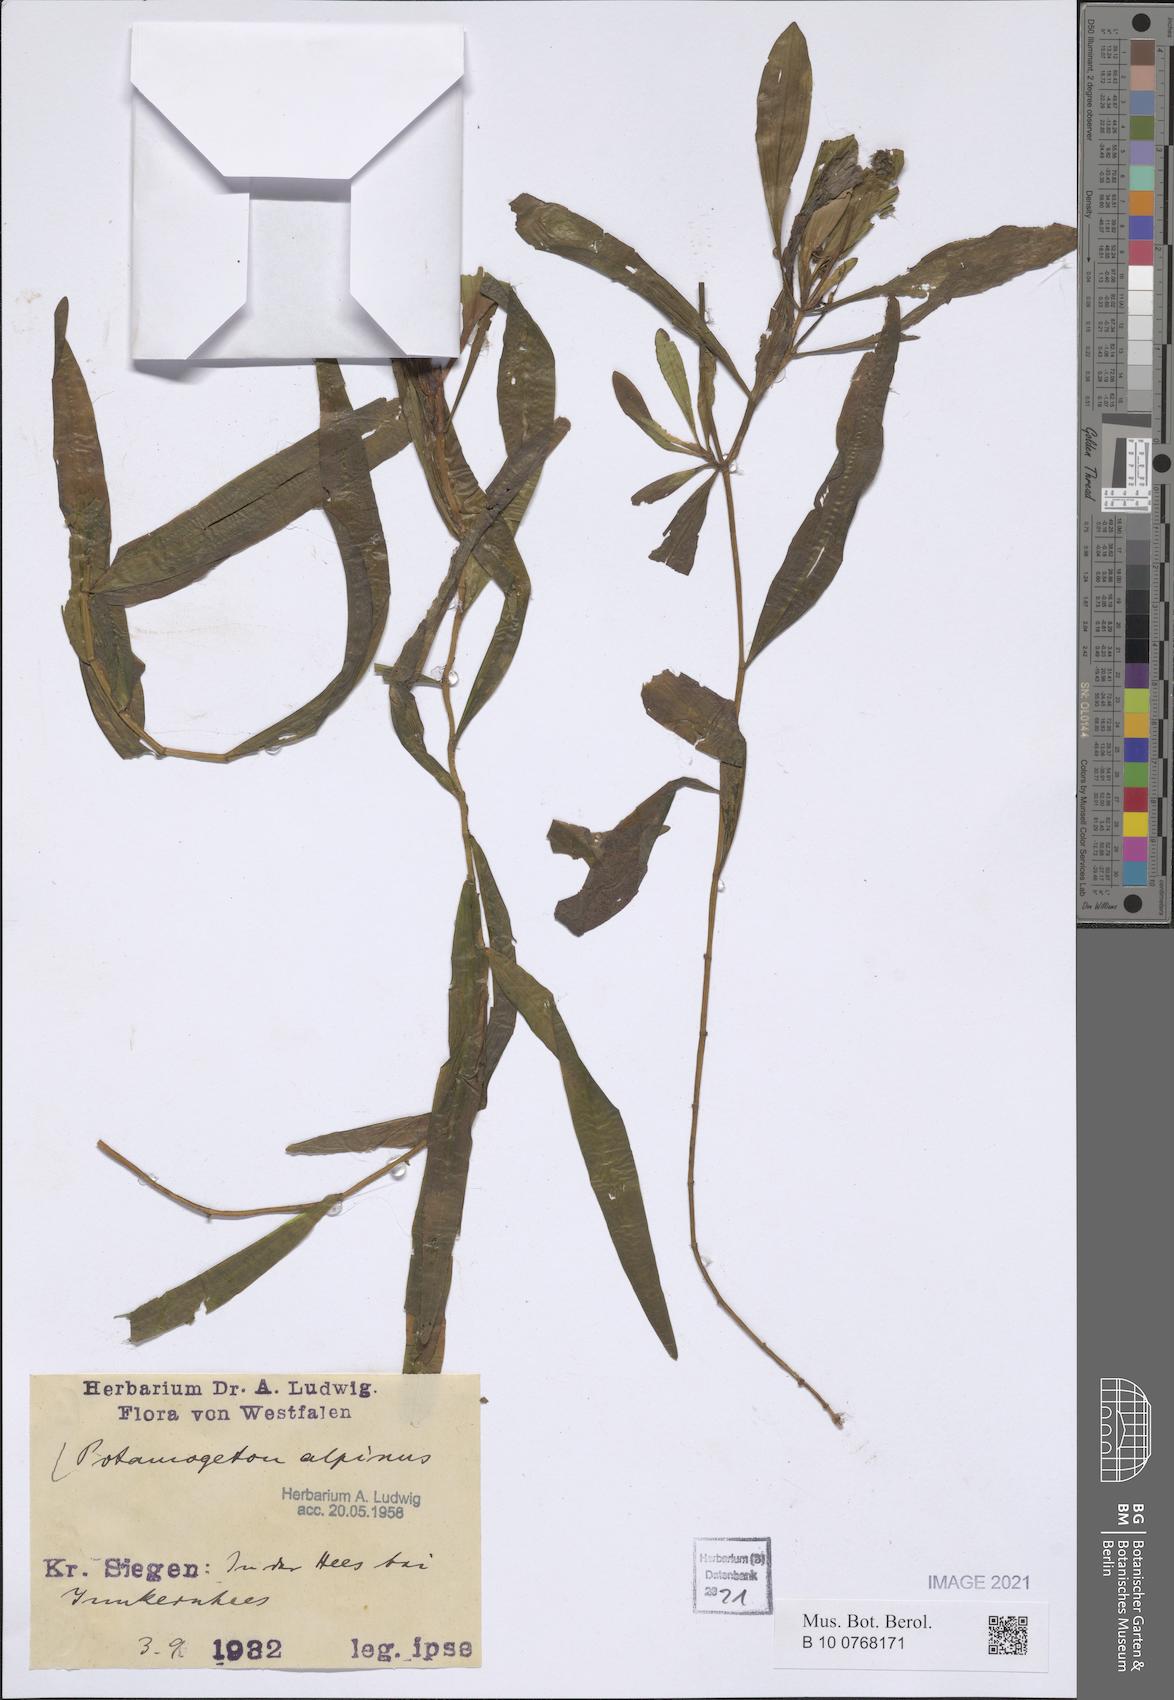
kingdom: Plantae
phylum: Tracheophyta
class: Liliopsida
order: Alismatales
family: Potamogetonaceae
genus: Potamogeton
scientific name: Potamogeton alpinus
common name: Red pondweed
